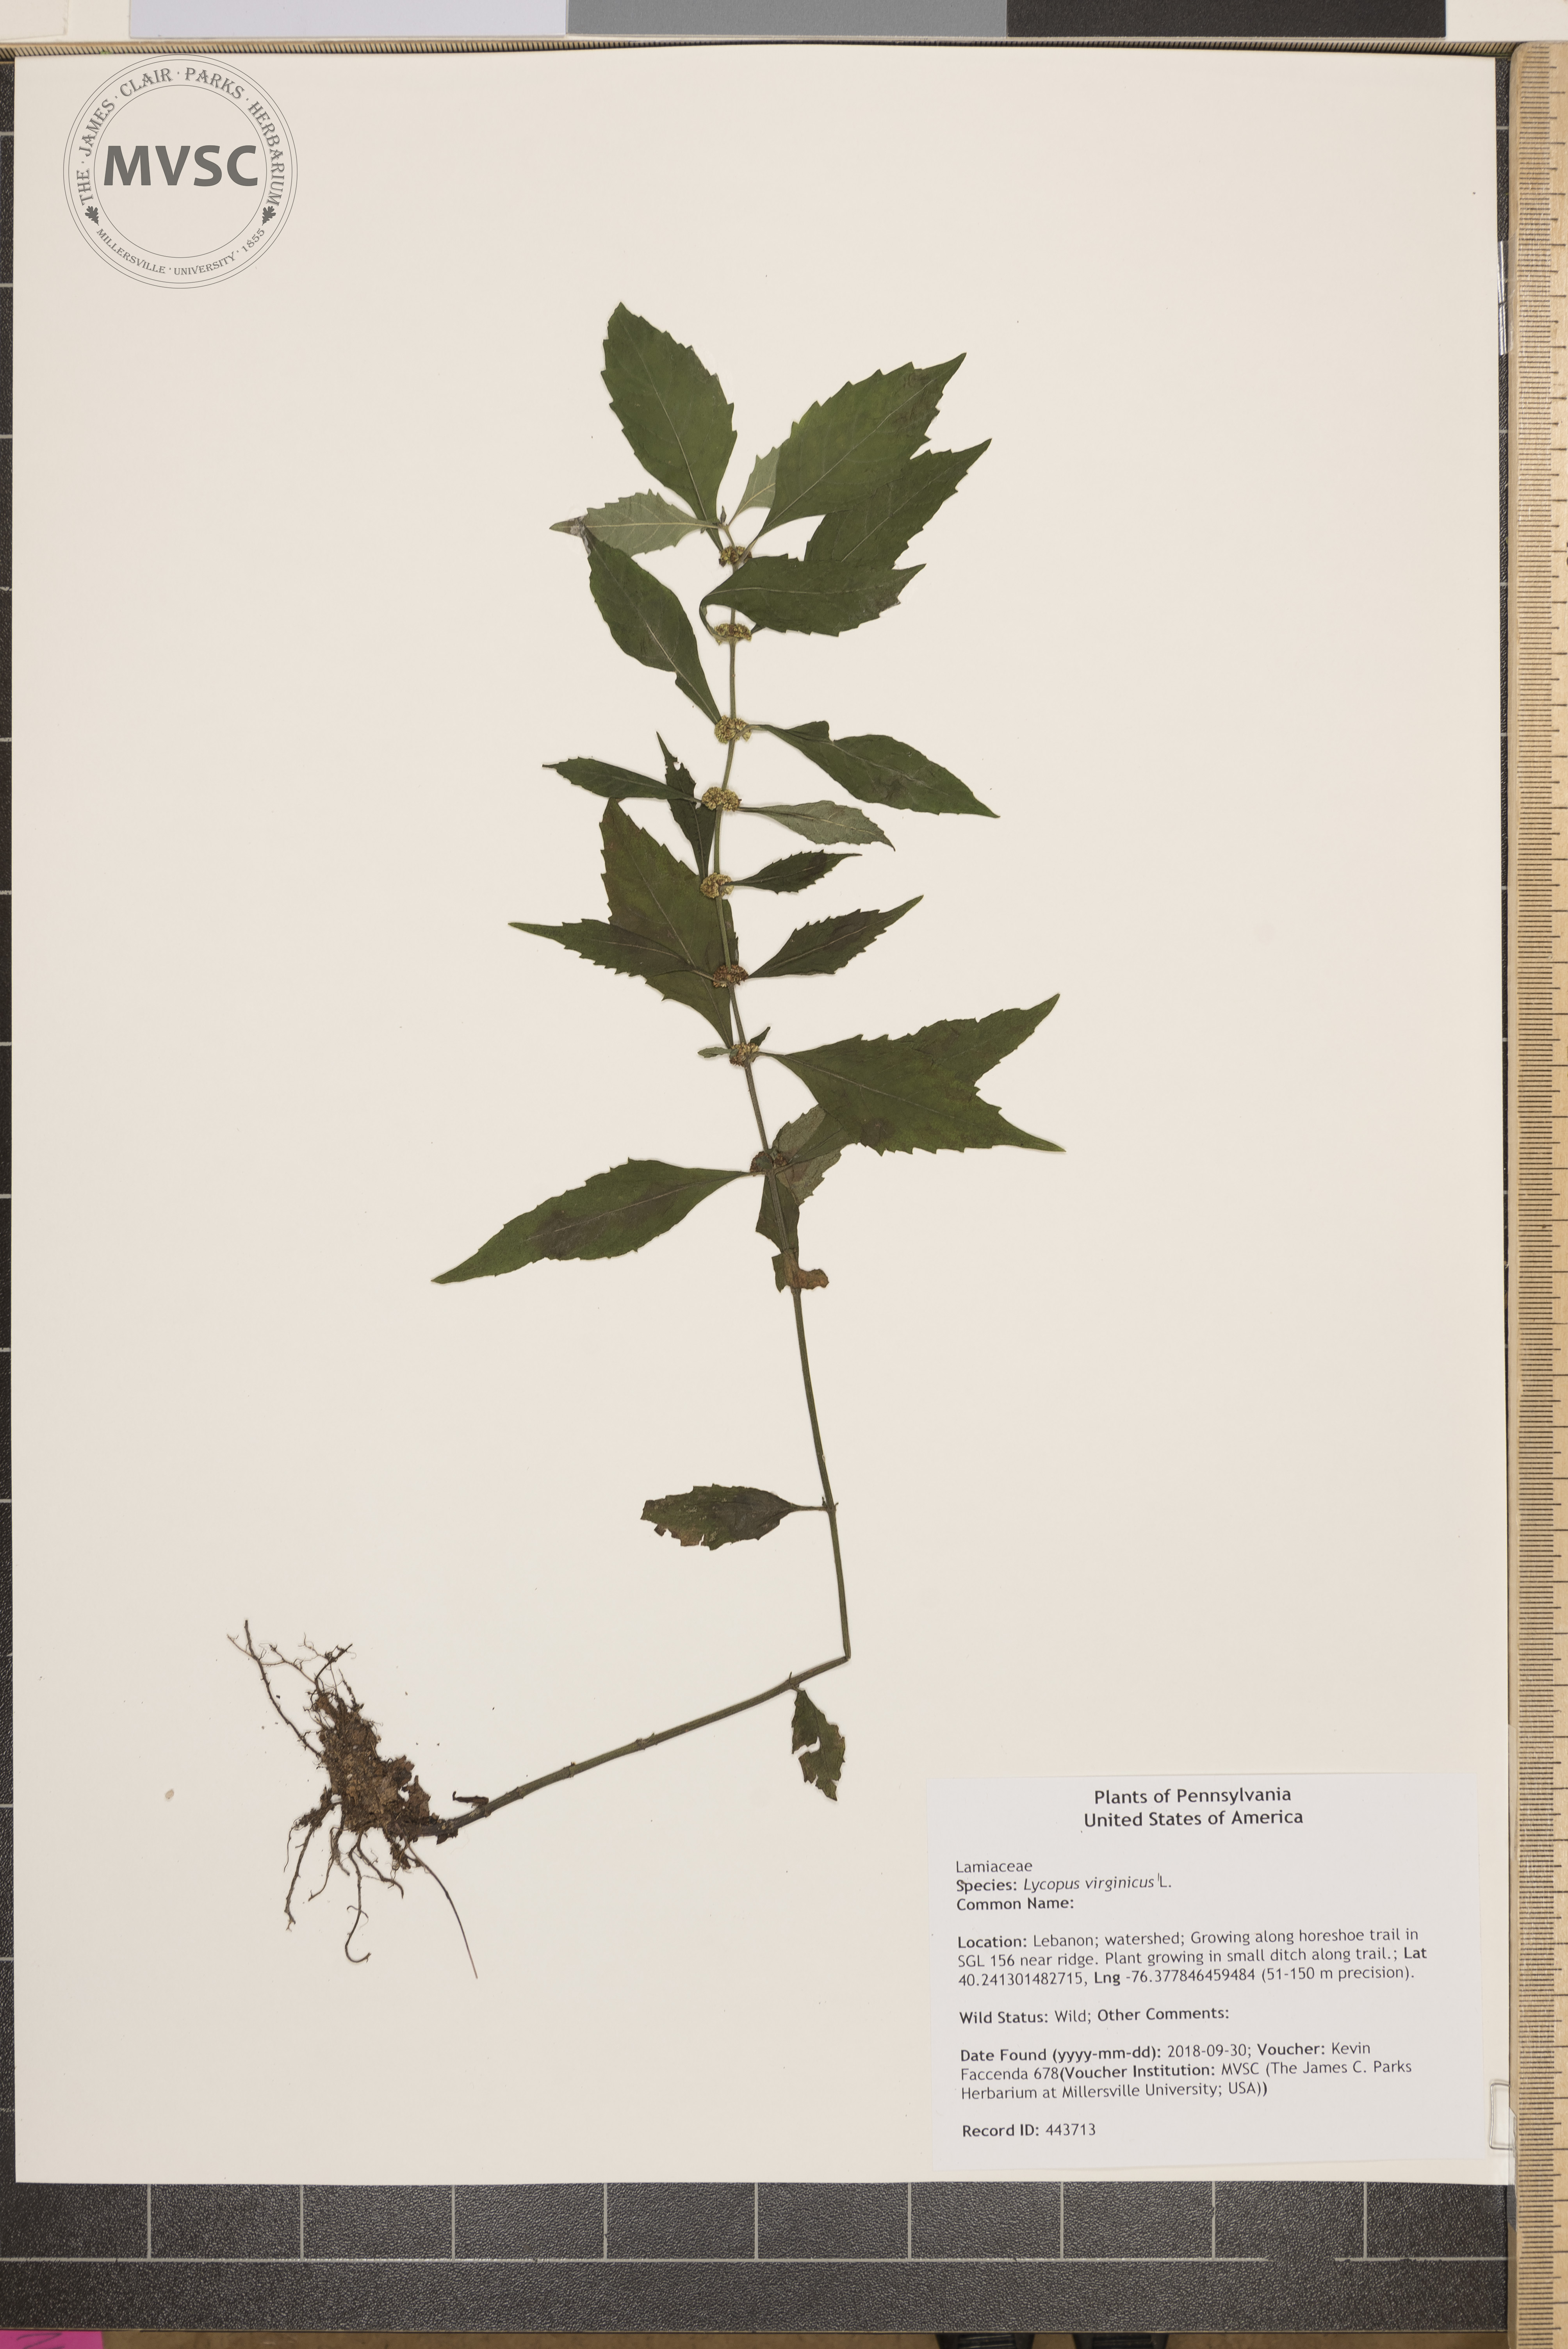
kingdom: Plantae
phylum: Tracheophyta
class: Magnoliopsida
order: Lamiales
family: Lamiaceae
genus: Lycopus
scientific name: Lycopus virginicus
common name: Bugleweed
